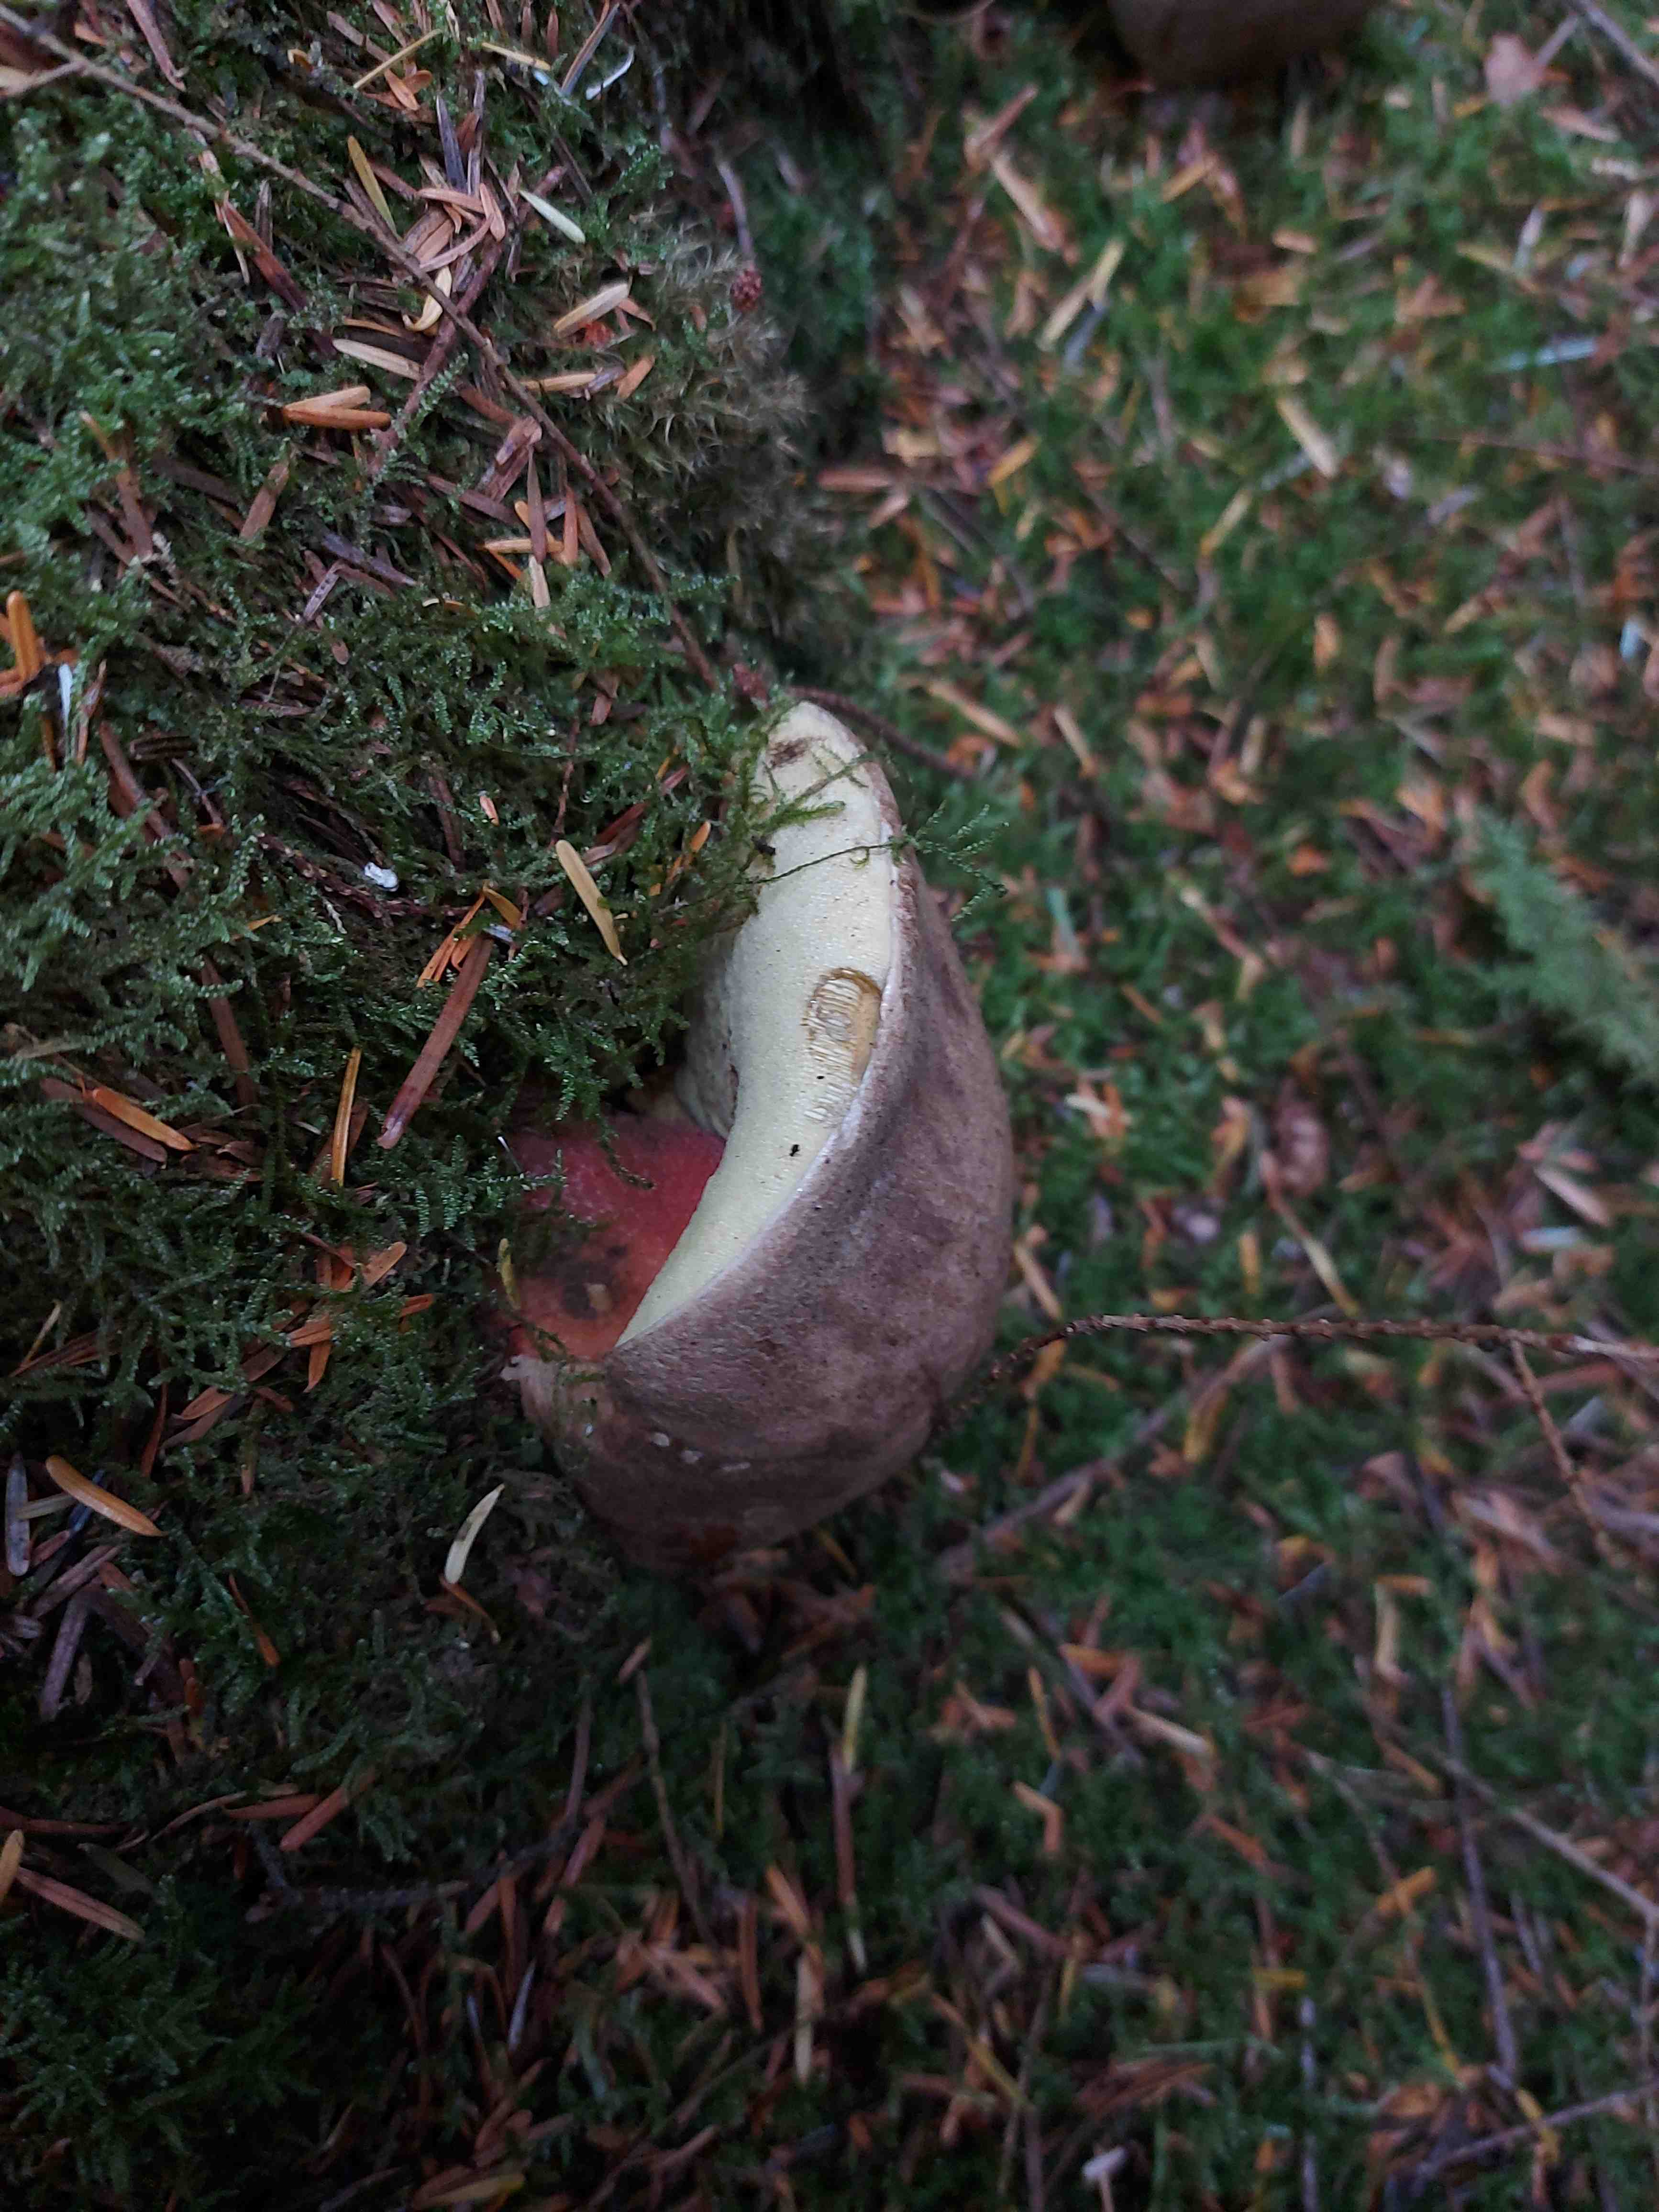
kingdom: Fungi
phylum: Basidiomycota
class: Agaricomycetes
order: Boletales
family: Boletaceae
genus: Caloboletus
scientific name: Caloboletus calopus
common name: skønfodet rørhat
